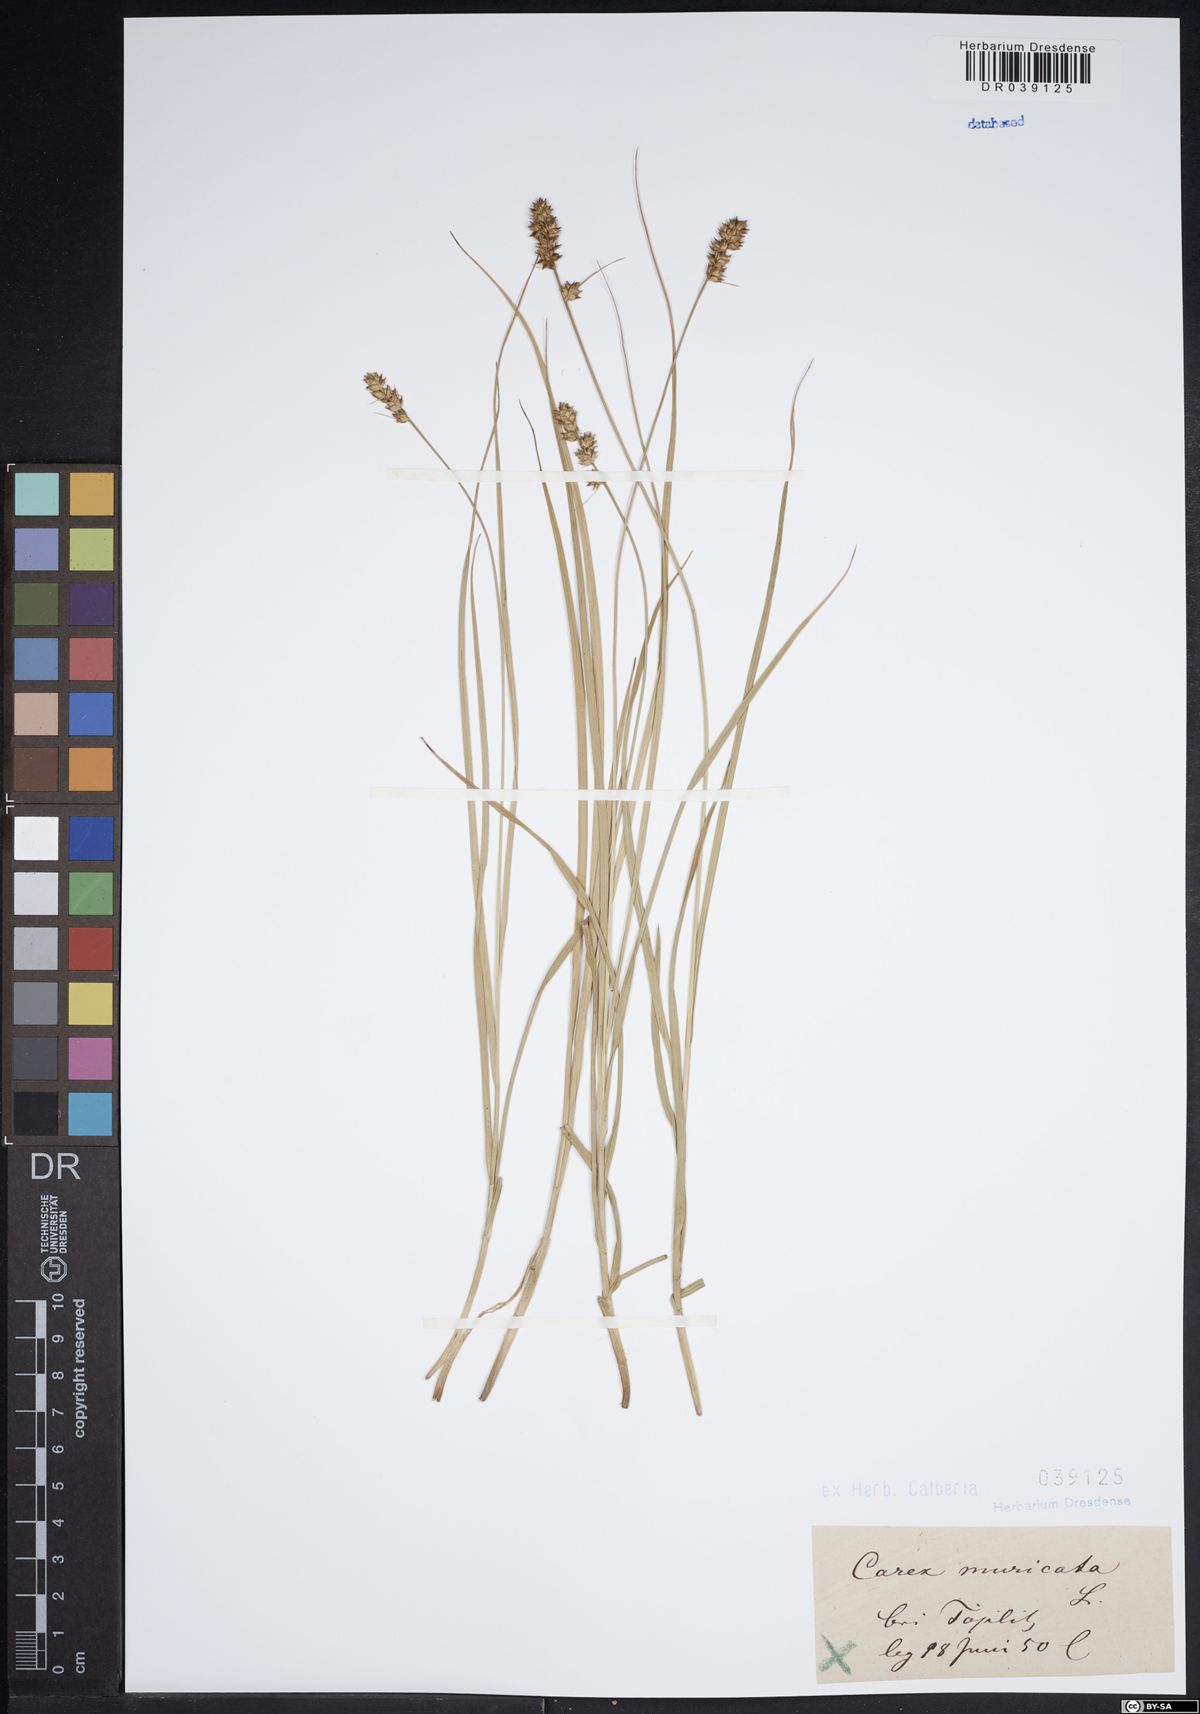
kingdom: Plantae
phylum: Tracheophyta
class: Liliopsida
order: Poales
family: Cyperaceae
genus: Carex
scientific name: Carex muricata
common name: Rough sedge
